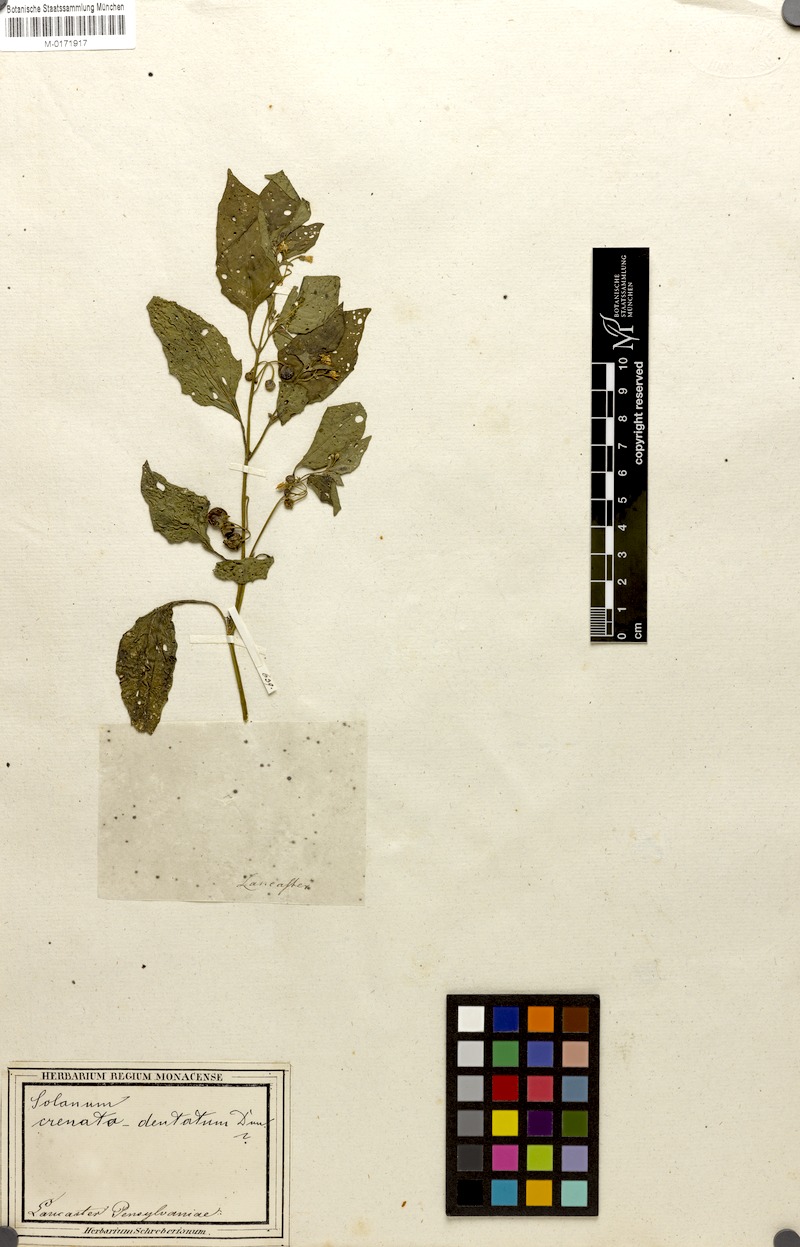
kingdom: Plantae
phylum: Tracheophyta
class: Magnoliopsida
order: Solanales
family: Solanaceae
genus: Solanum
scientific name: Solanum americanum
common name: American black nightshade
